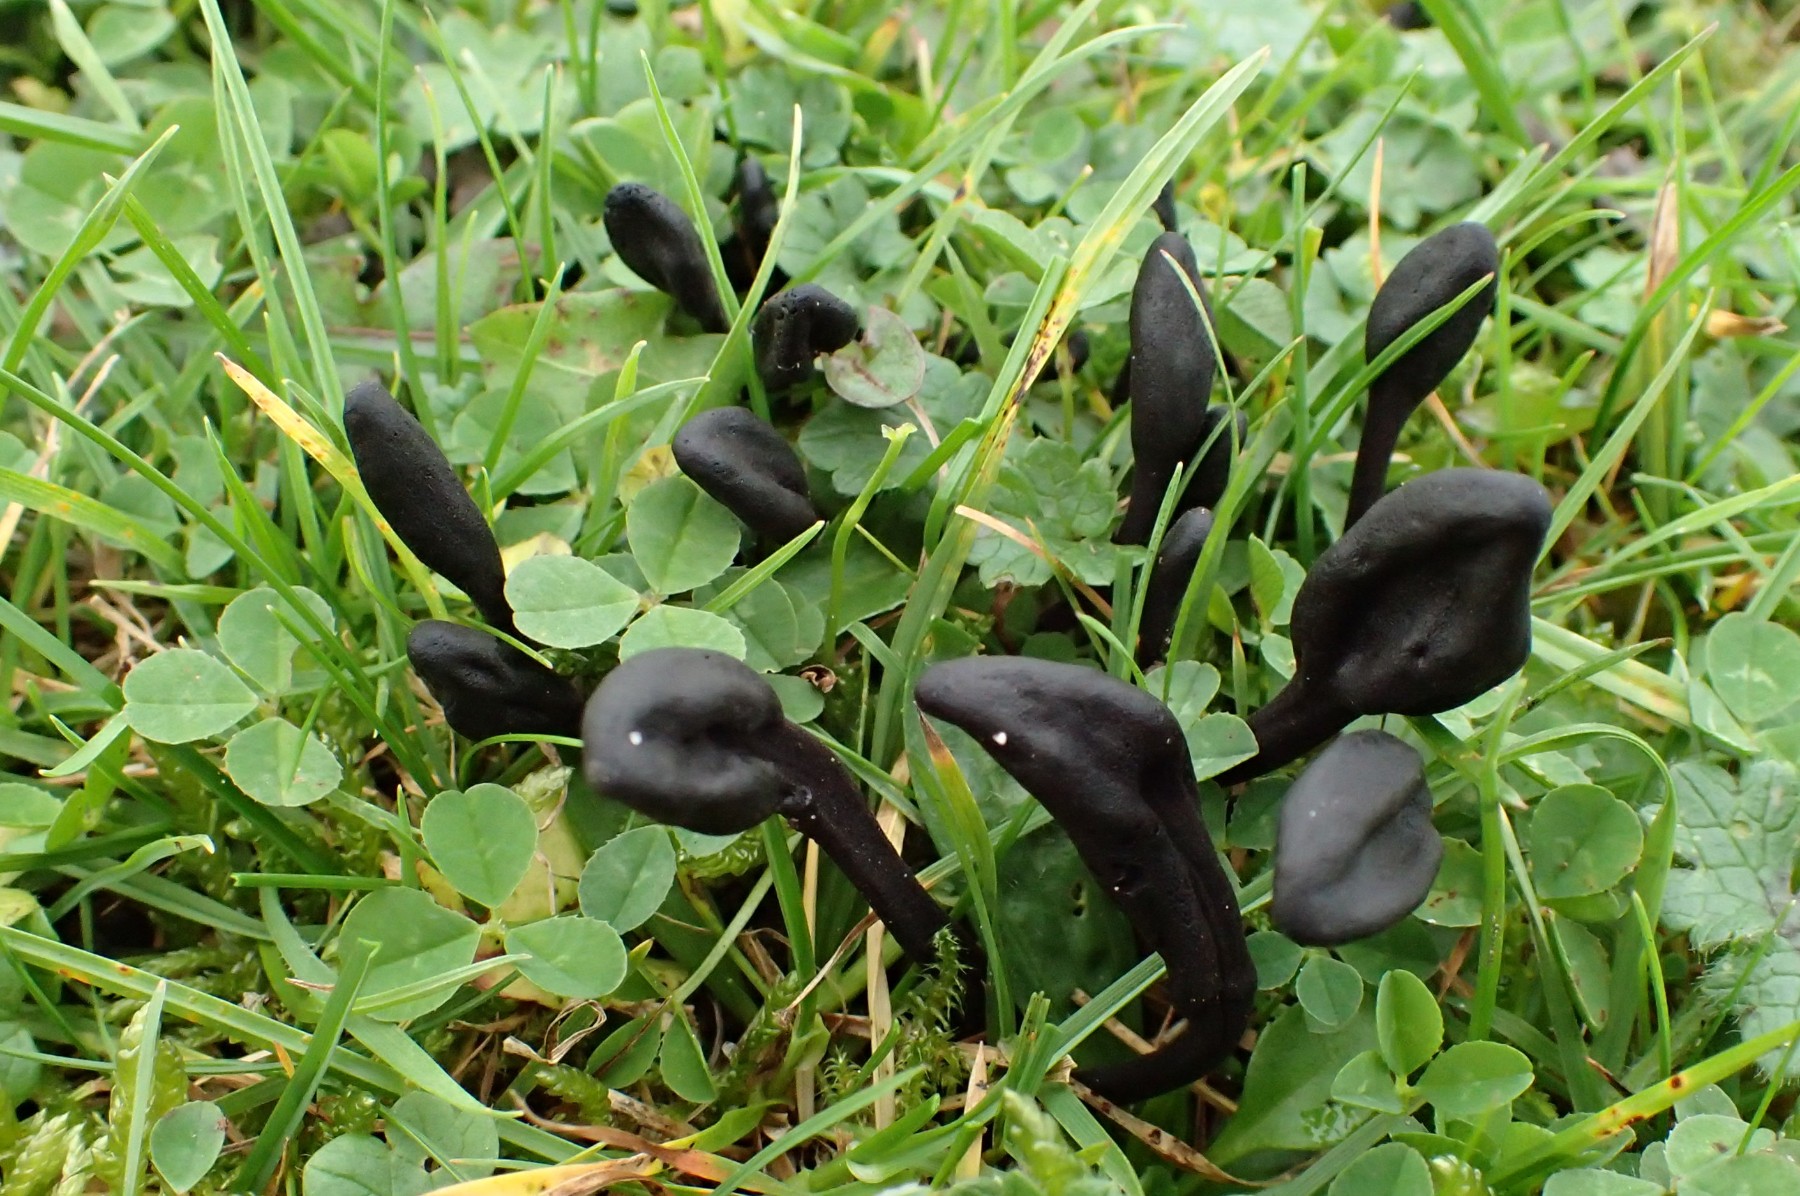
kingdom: Fungi
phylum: Ascomycota
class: Geoglossomycetes
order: Geoglossales
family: Geoglossaceae
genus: Trichoglossum
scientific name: Trichoglossum hirsutum
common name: håret jordtunge
